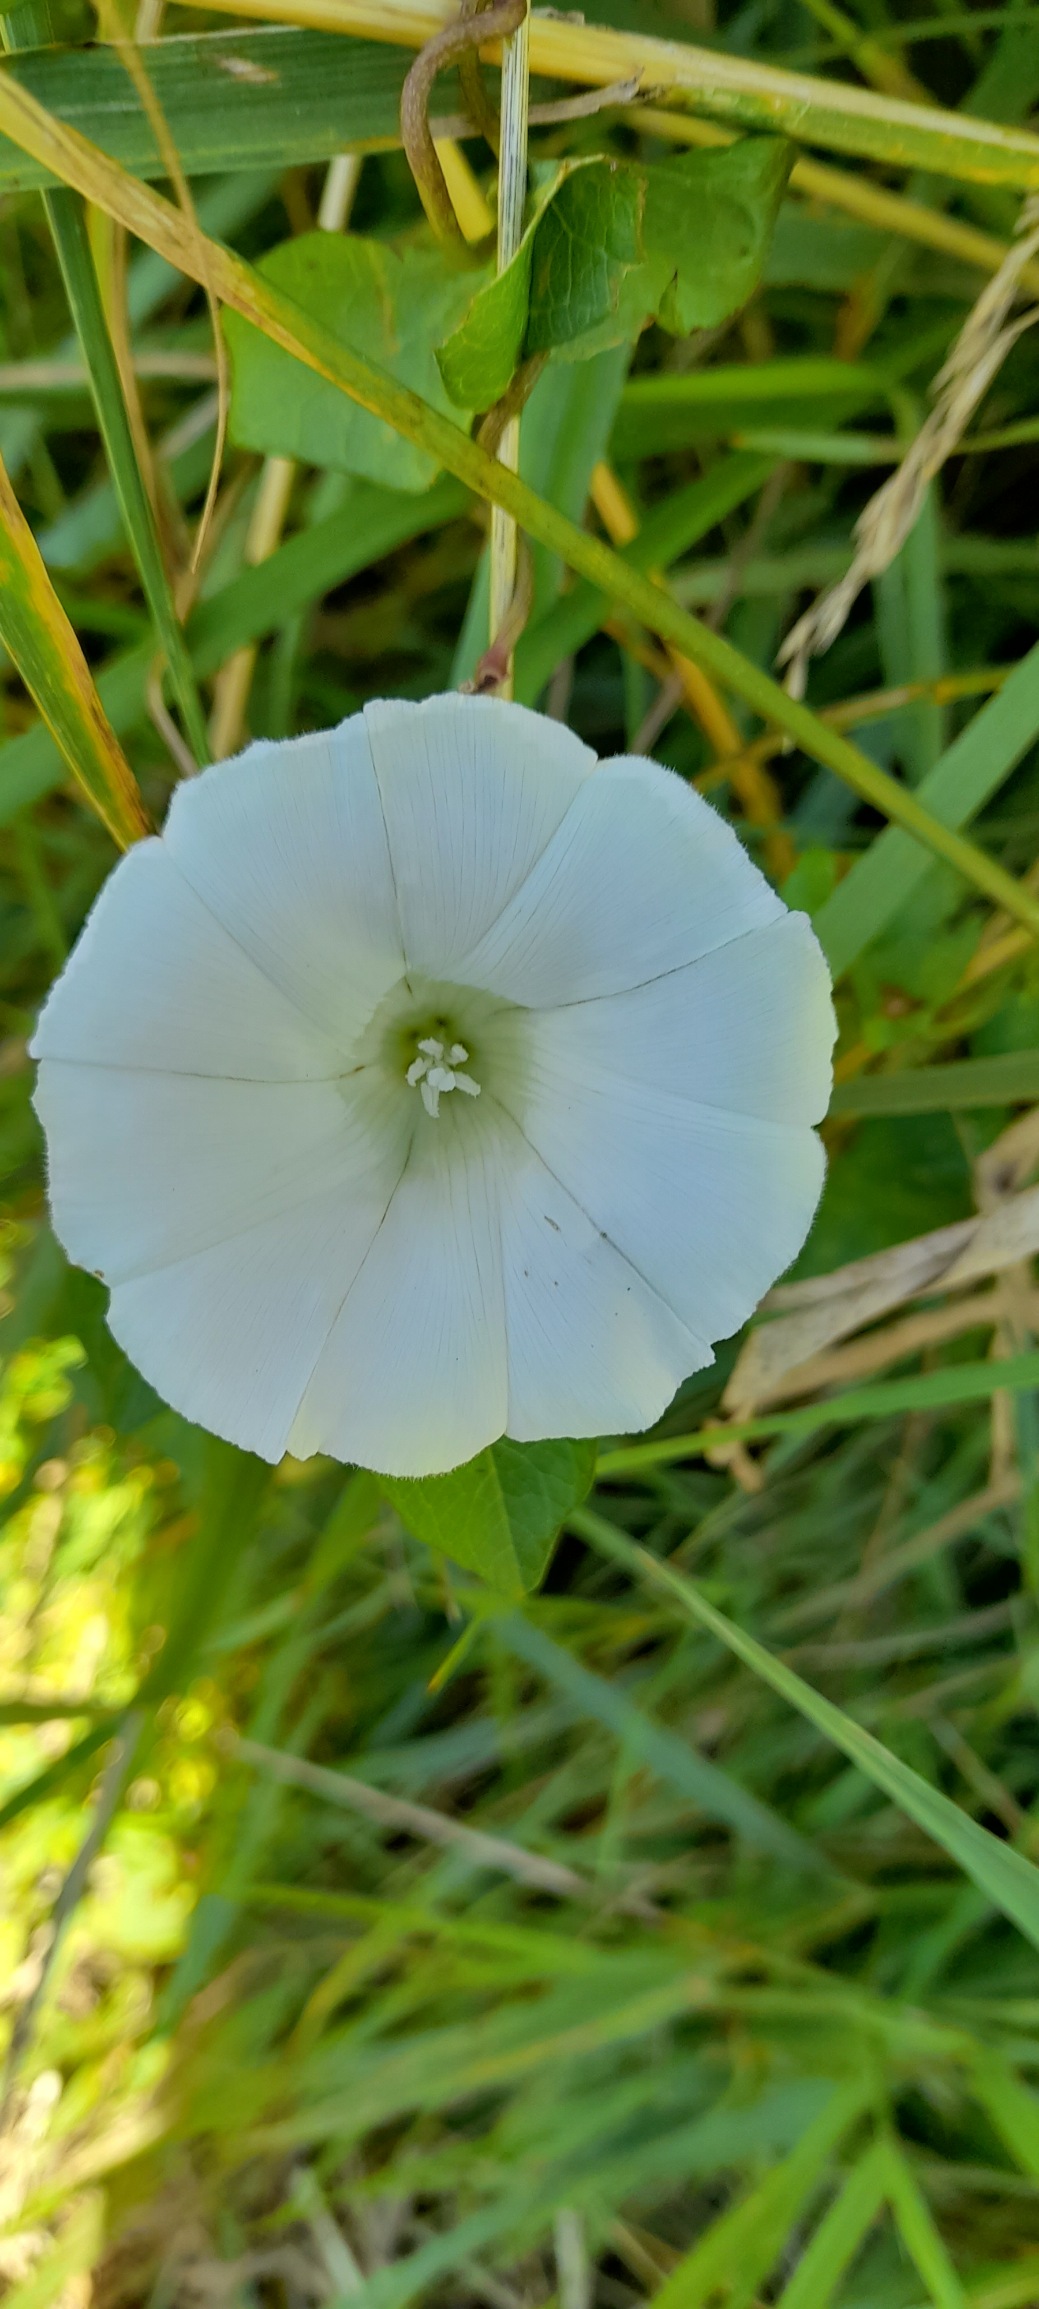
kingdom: Plantae
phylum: Tracheophyta
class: Magnoliopsida
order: Solanales
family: Convolvulaceae
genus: Calystegia
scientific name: Calystegia sepium
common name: Gærde-snerle
